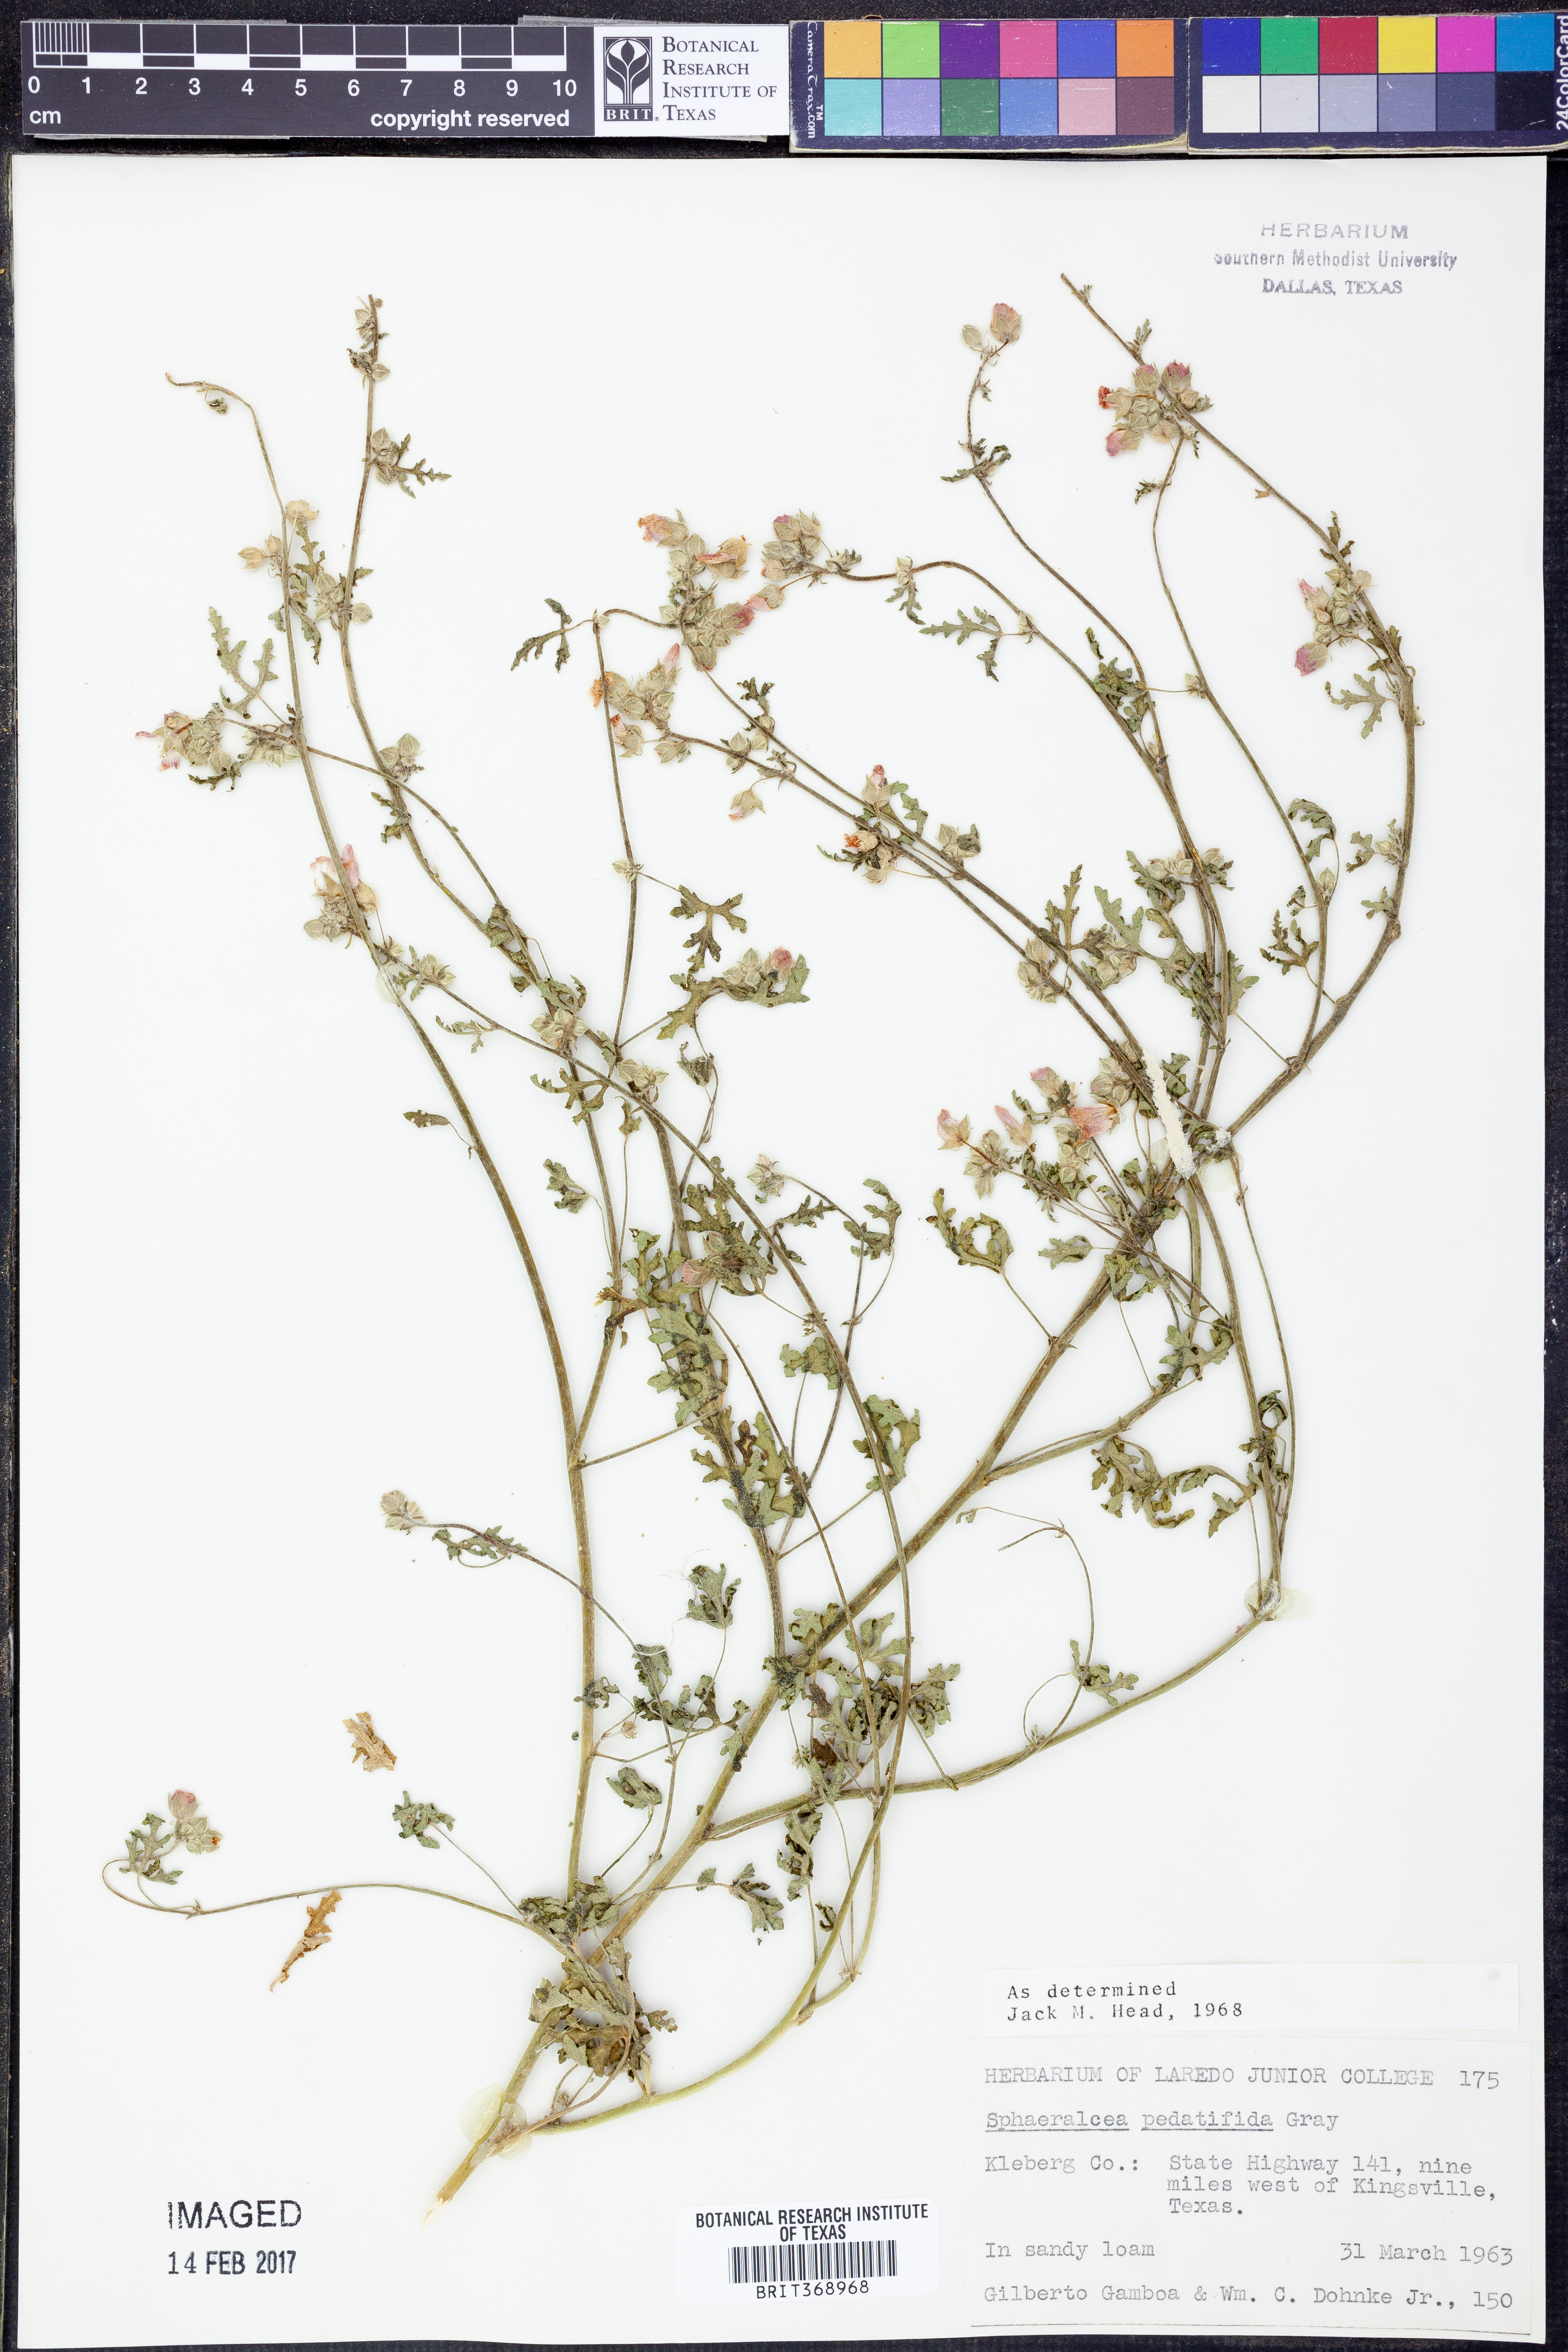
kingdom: Plantae
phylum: Tracheophyta
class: Magnoliopsida
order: Malvales
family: Malvaceae
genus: Sphaeralcea
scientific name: Sphaeralcea pedatifida
